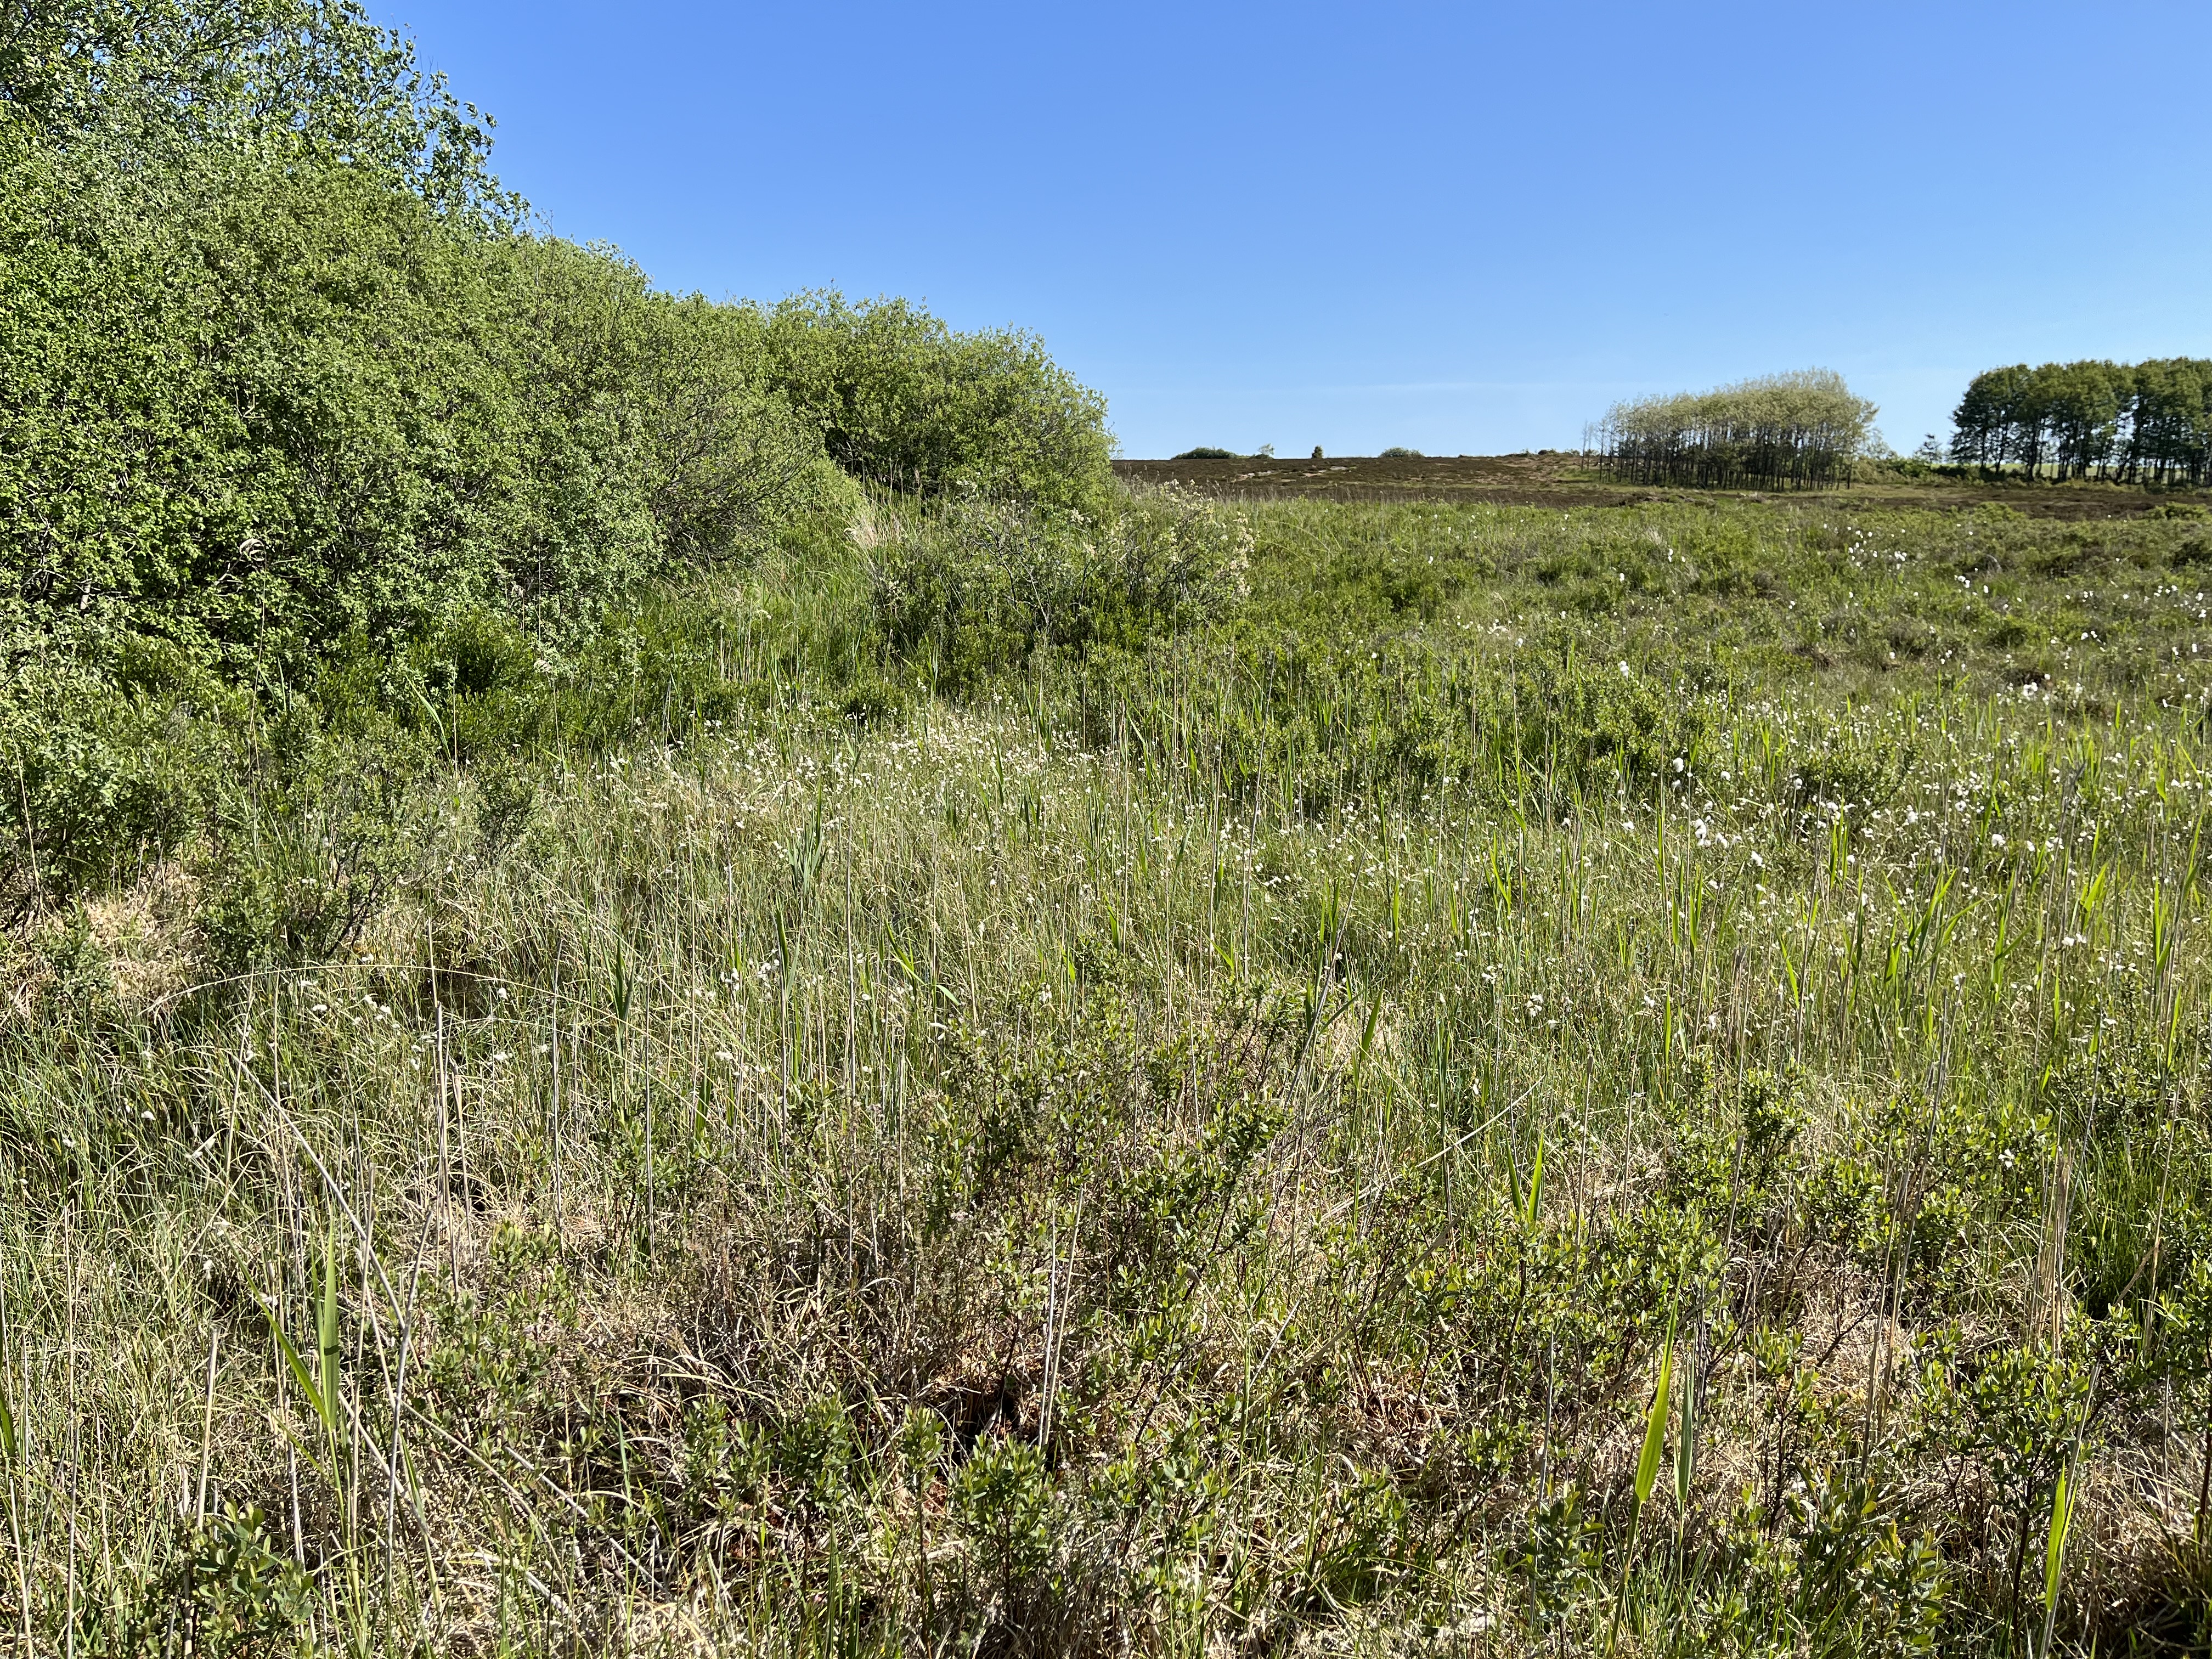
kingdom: Plantae
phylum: Tracheophyta
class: Liliopsida
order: Poales
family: Cyperaceae
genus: Eriophorum
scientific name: Eriophorum gracile
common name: Fin kæruld
